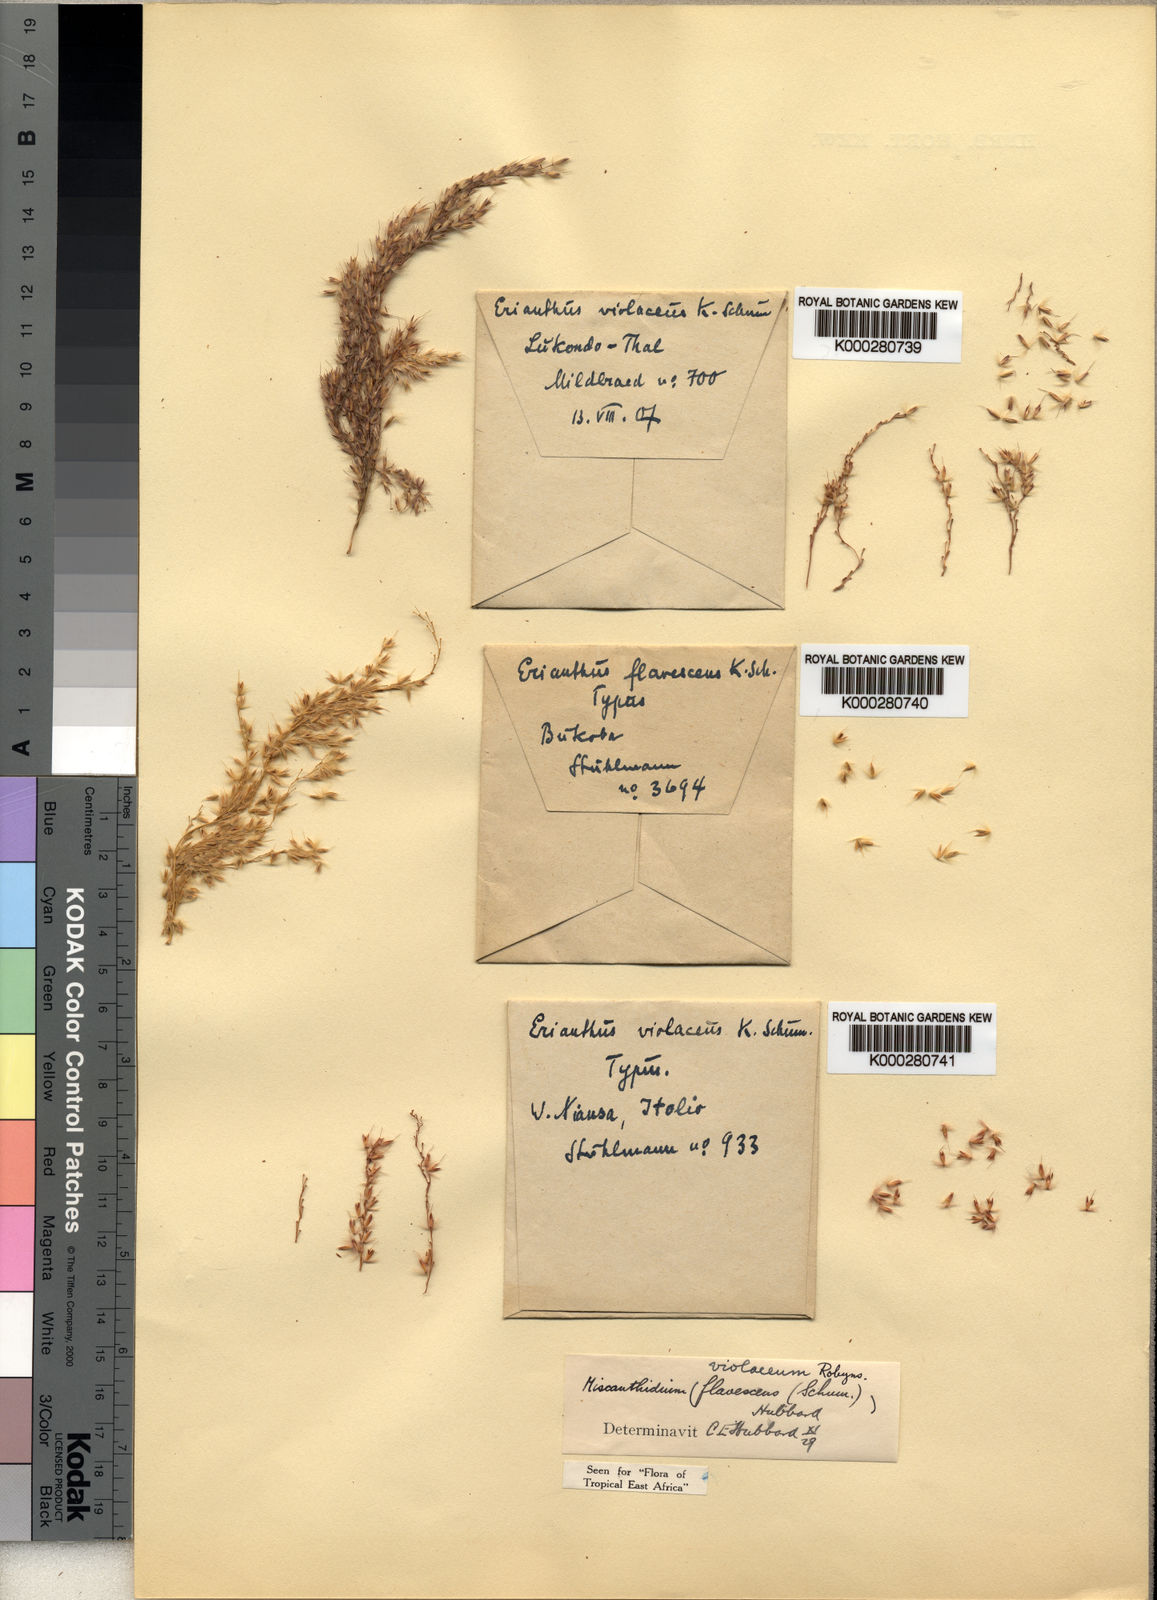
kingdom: Plantae
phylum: Tracheophyta
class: Liliopsida
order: Poales
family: Poaceae
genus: Miscanthidium
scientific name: Miscanthidium violaceum
